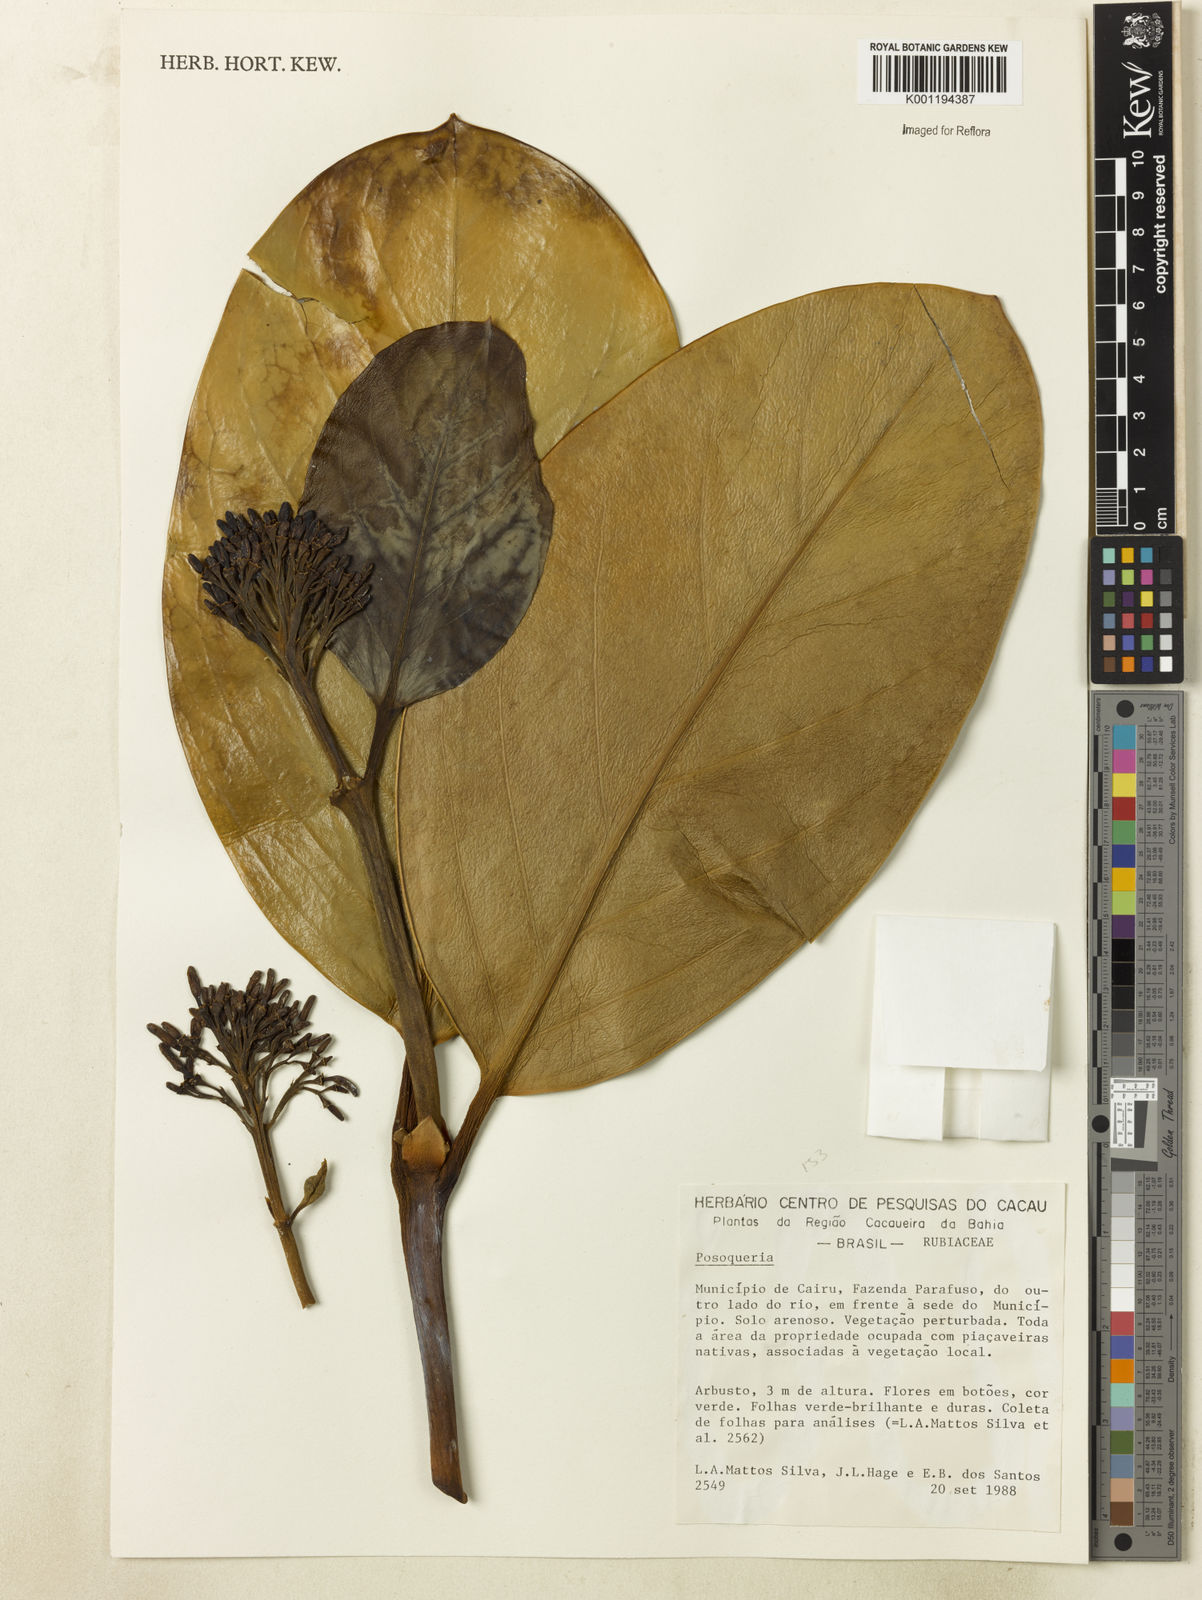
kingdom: Plantae
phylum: Tracheophyta
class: Magnoliopsida
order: Gentianales
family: Rubiaceae
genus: Posoqueria
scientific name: Posoqueria
